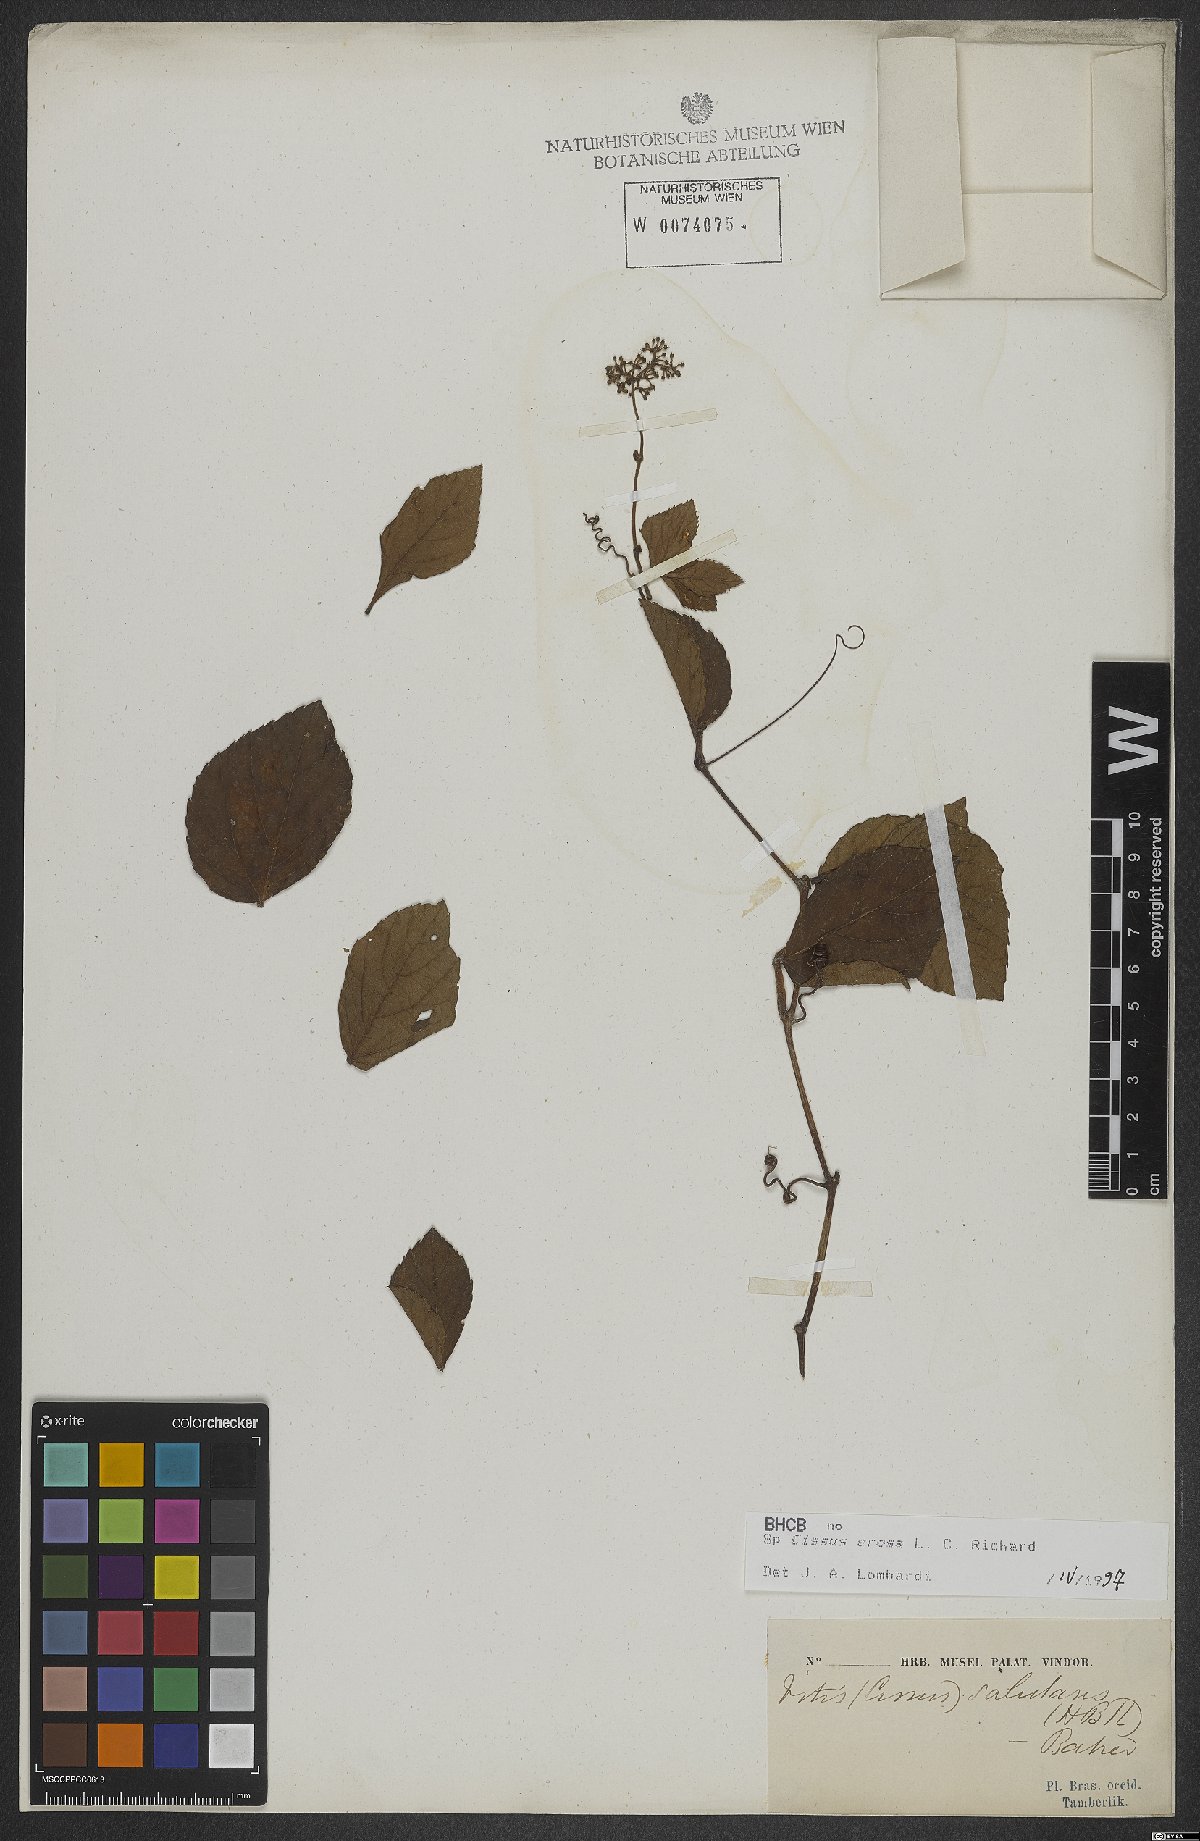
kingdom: Plantae
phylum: Tracheophyta
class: Magnoliopsida
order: Vitales
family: Vitaceae
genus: Cissus
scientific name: Cissus erosa
